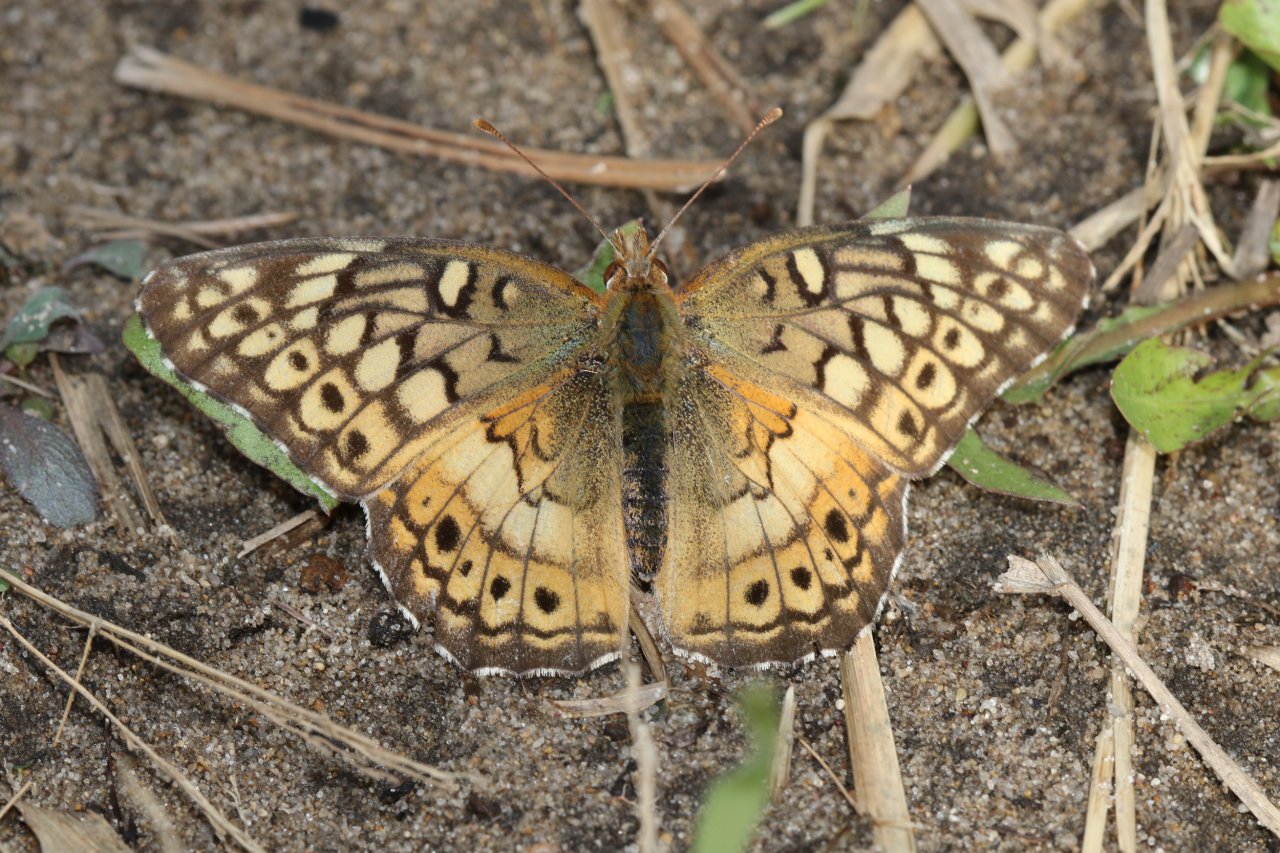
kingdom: Animalia
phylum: Arthropoda
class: Insecta
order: Lepidoptera
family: Nymphalidae
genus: Euptoieta
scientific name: Euptoieta claudia
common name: Variegated Fritillary
